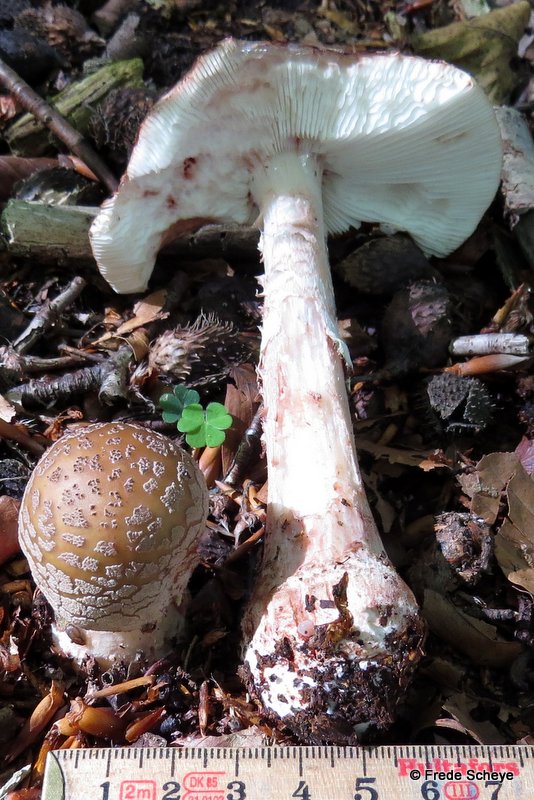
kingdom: Fungi
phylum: Basidiomycota
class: Agaricomycetes
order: Agaricales
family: Amanitaceae
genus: Amanita
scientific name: Amanita rubescens
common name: rødmende fluesvamp
